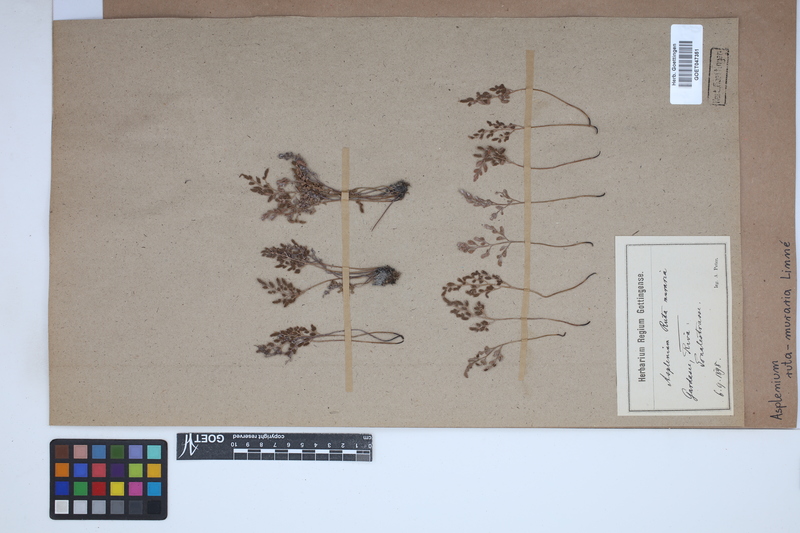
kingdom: Plantae
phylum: Tracheophyta
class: Polypodiopsida
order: Polypodiales
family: Aspleniaceae
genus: Asplenium
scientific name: Asplenium ruta-muraria
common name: Wall-rue
